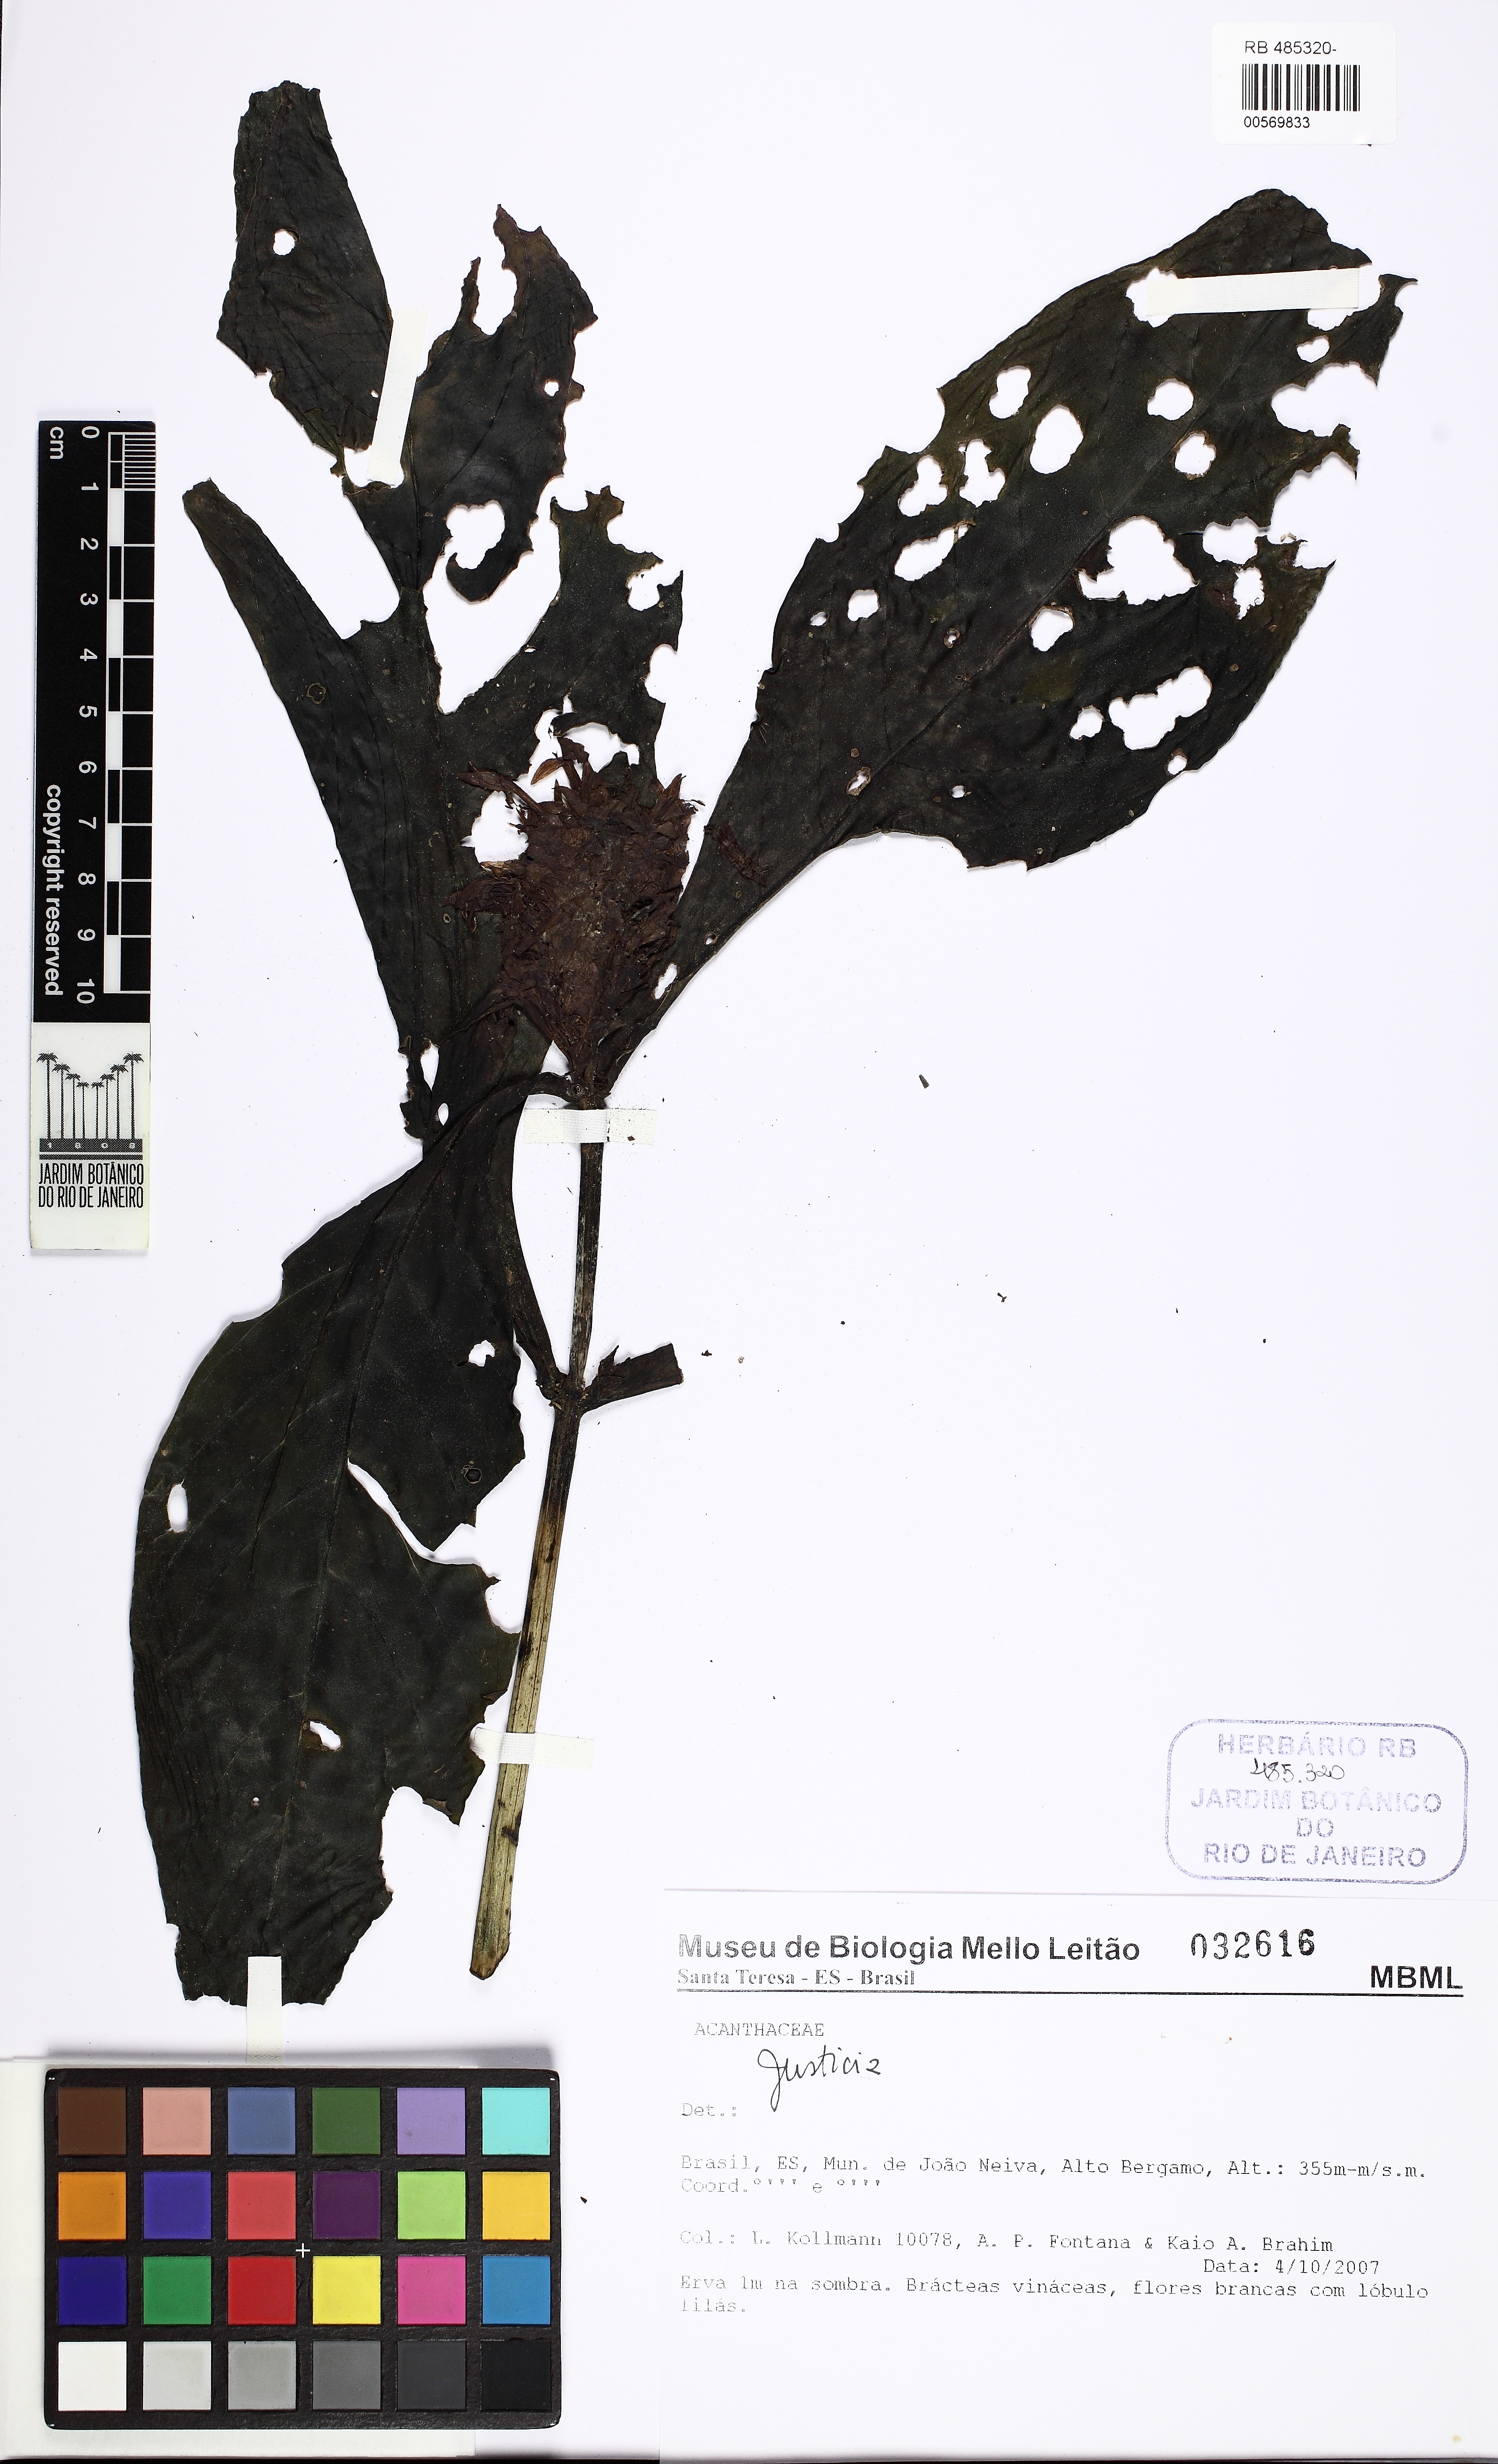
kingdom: Plantae
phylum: Tracheophyta
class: Magnoliopsida
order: Lamiales
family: Acanthaceae
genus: Justicia
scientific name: Justicia
